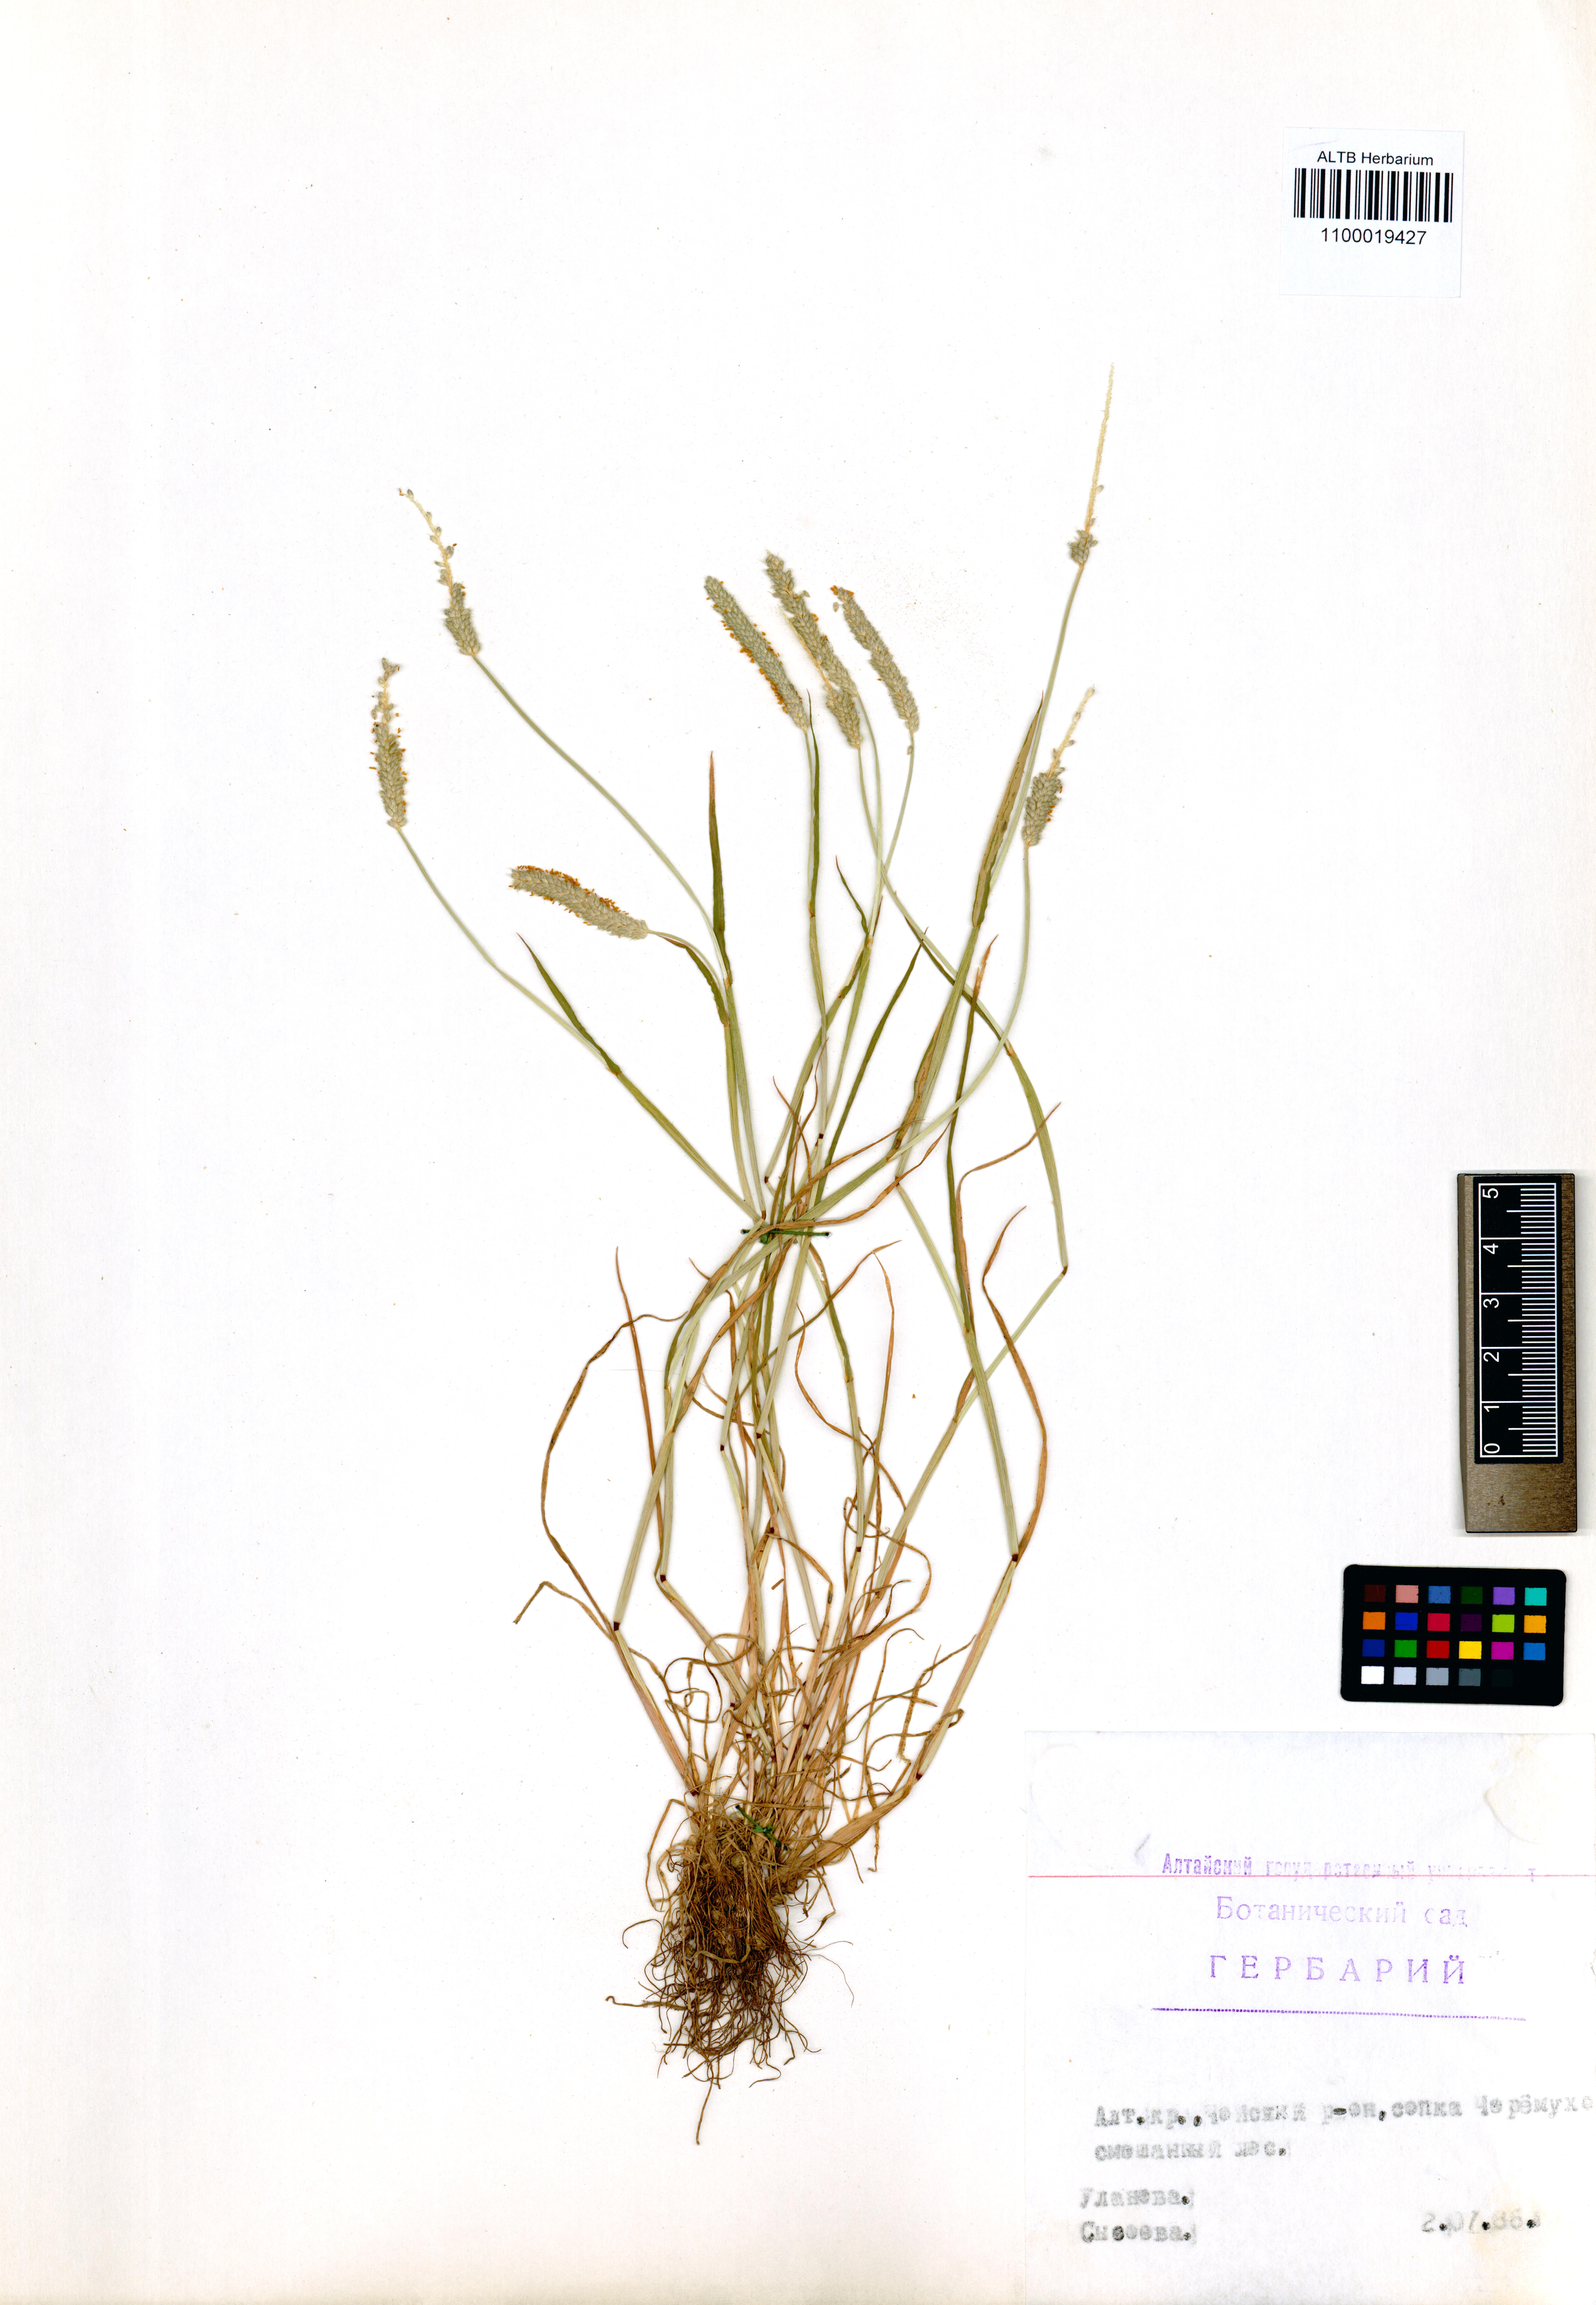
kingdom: Plantae
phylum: Tracheophyta
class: Liliopsida
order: Poales
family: Poaceae
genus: Alopecurus
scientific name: Alopecurus aequalis
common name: Orange foxtail
